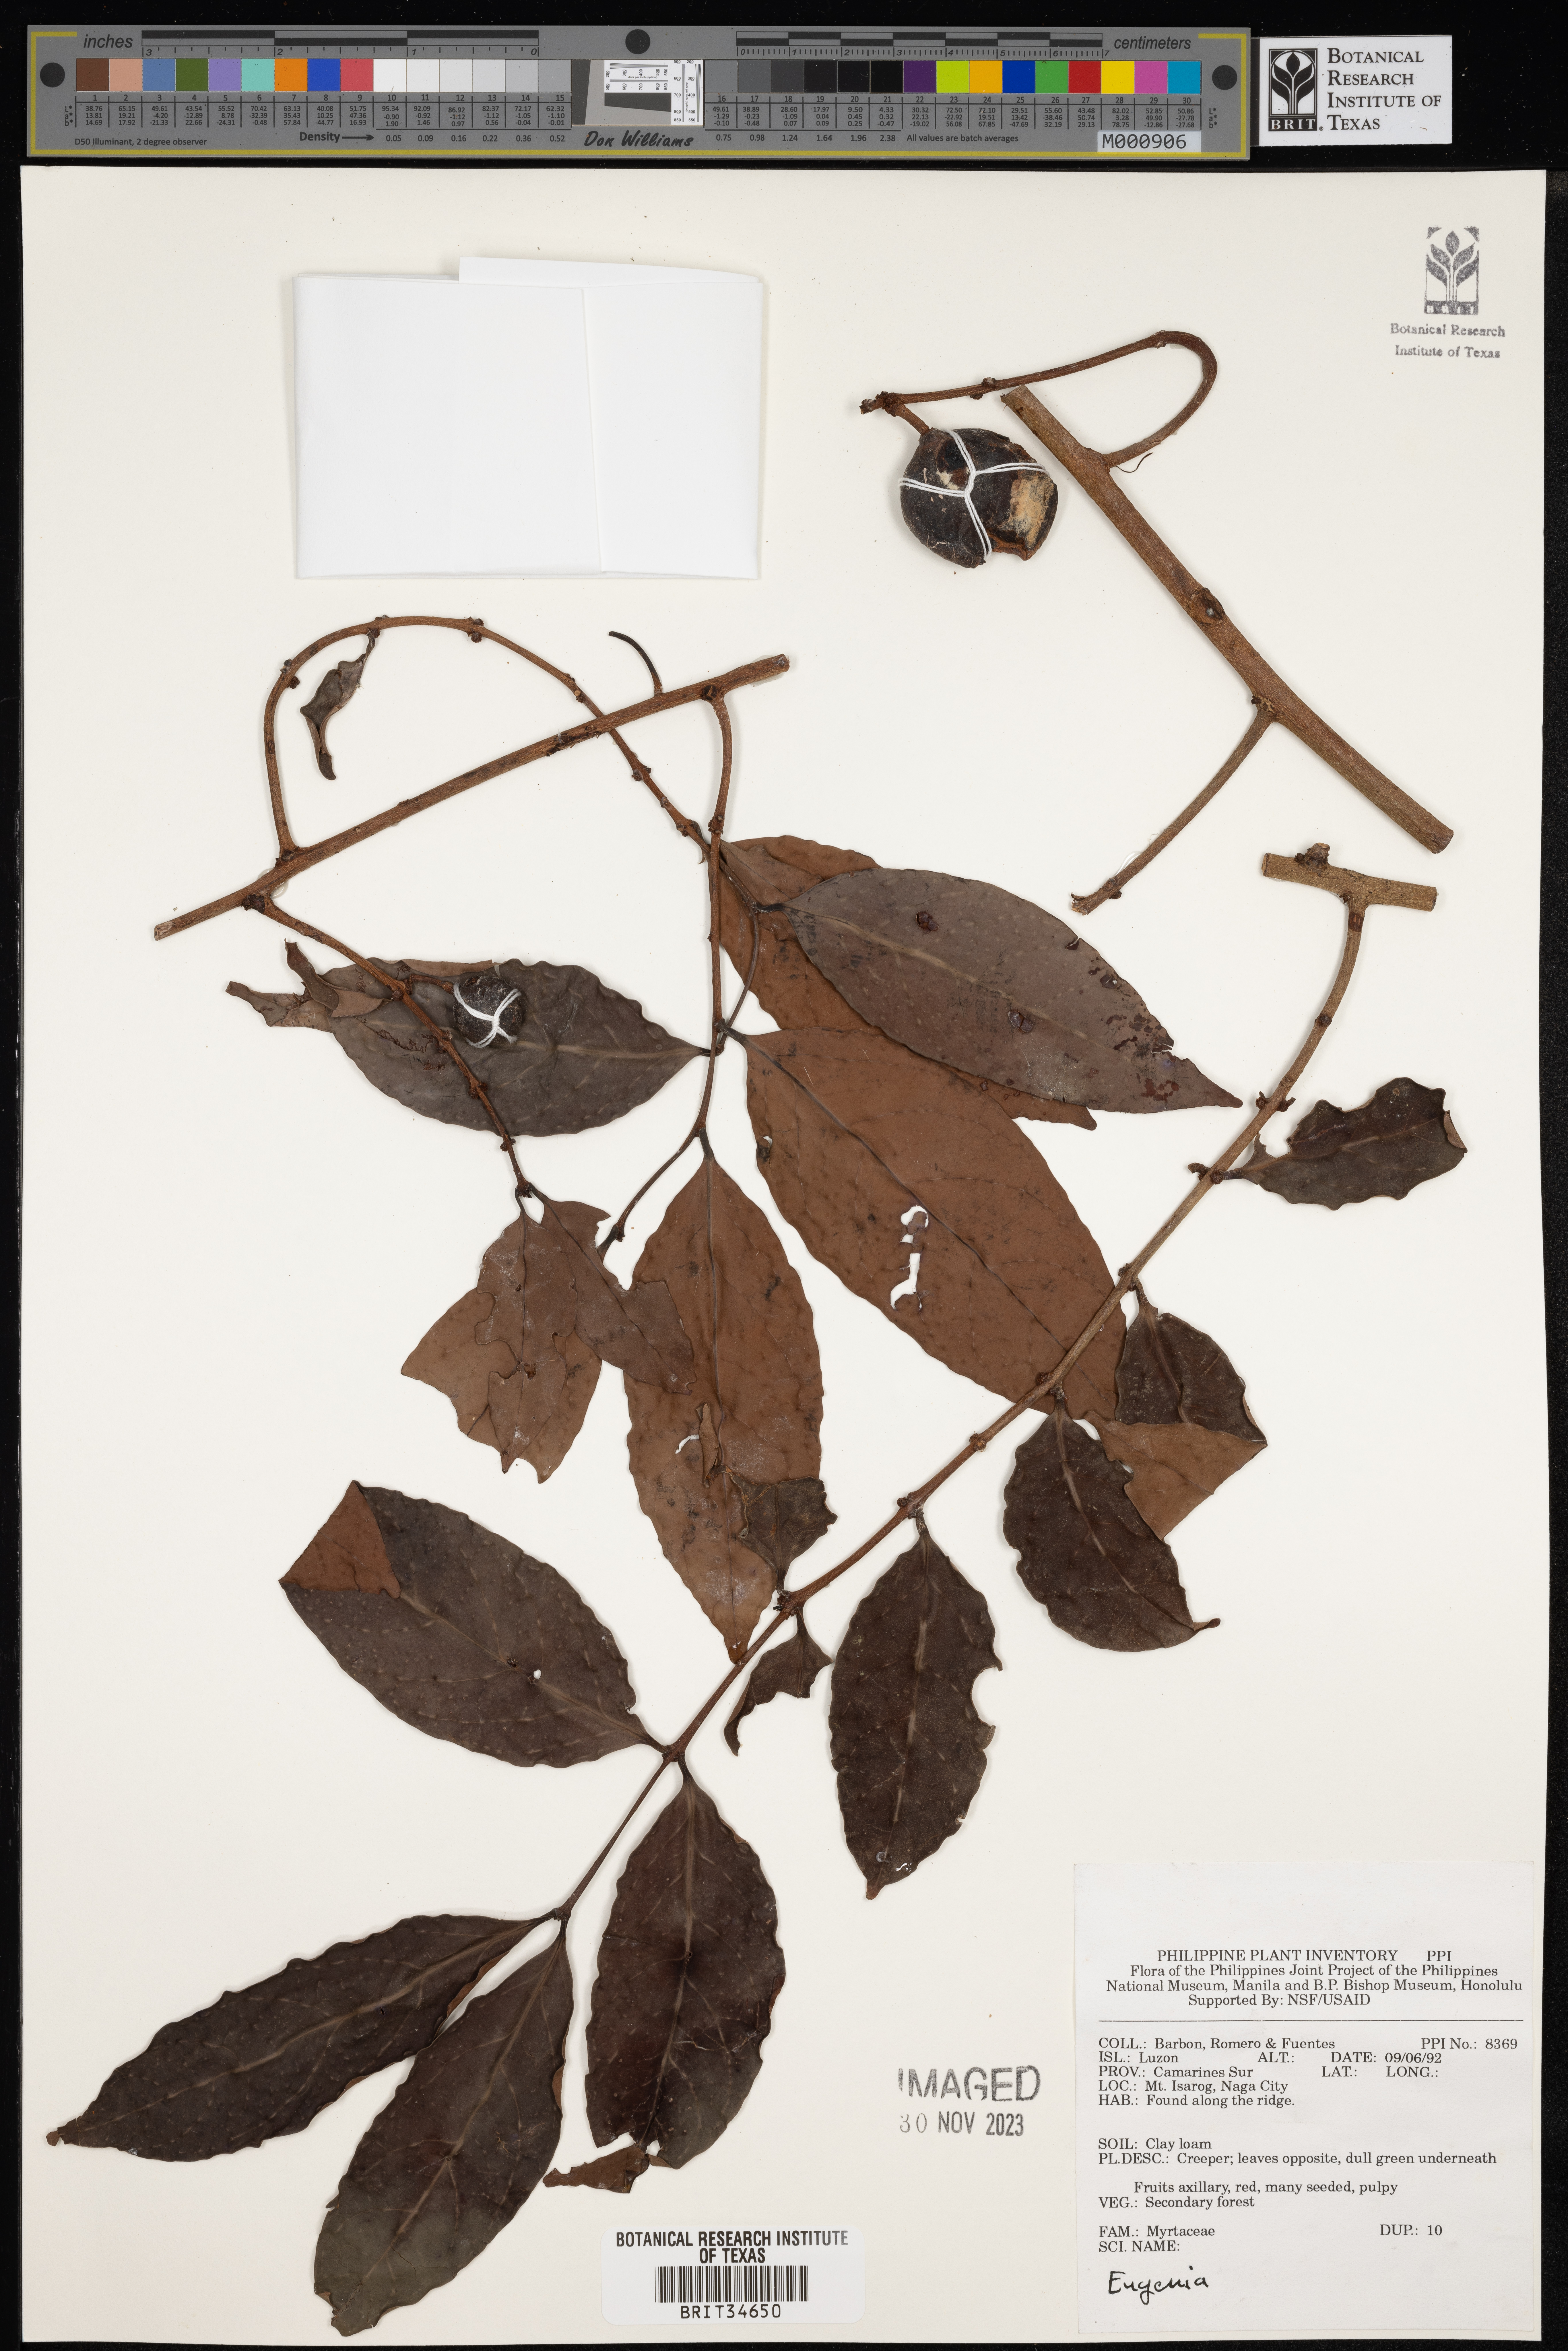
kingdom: Plantae
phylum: Tracheophyta
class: Magnoliopsida
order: Myrtales
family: Myrtaceae
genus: Eugenia
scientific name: Eugenia
